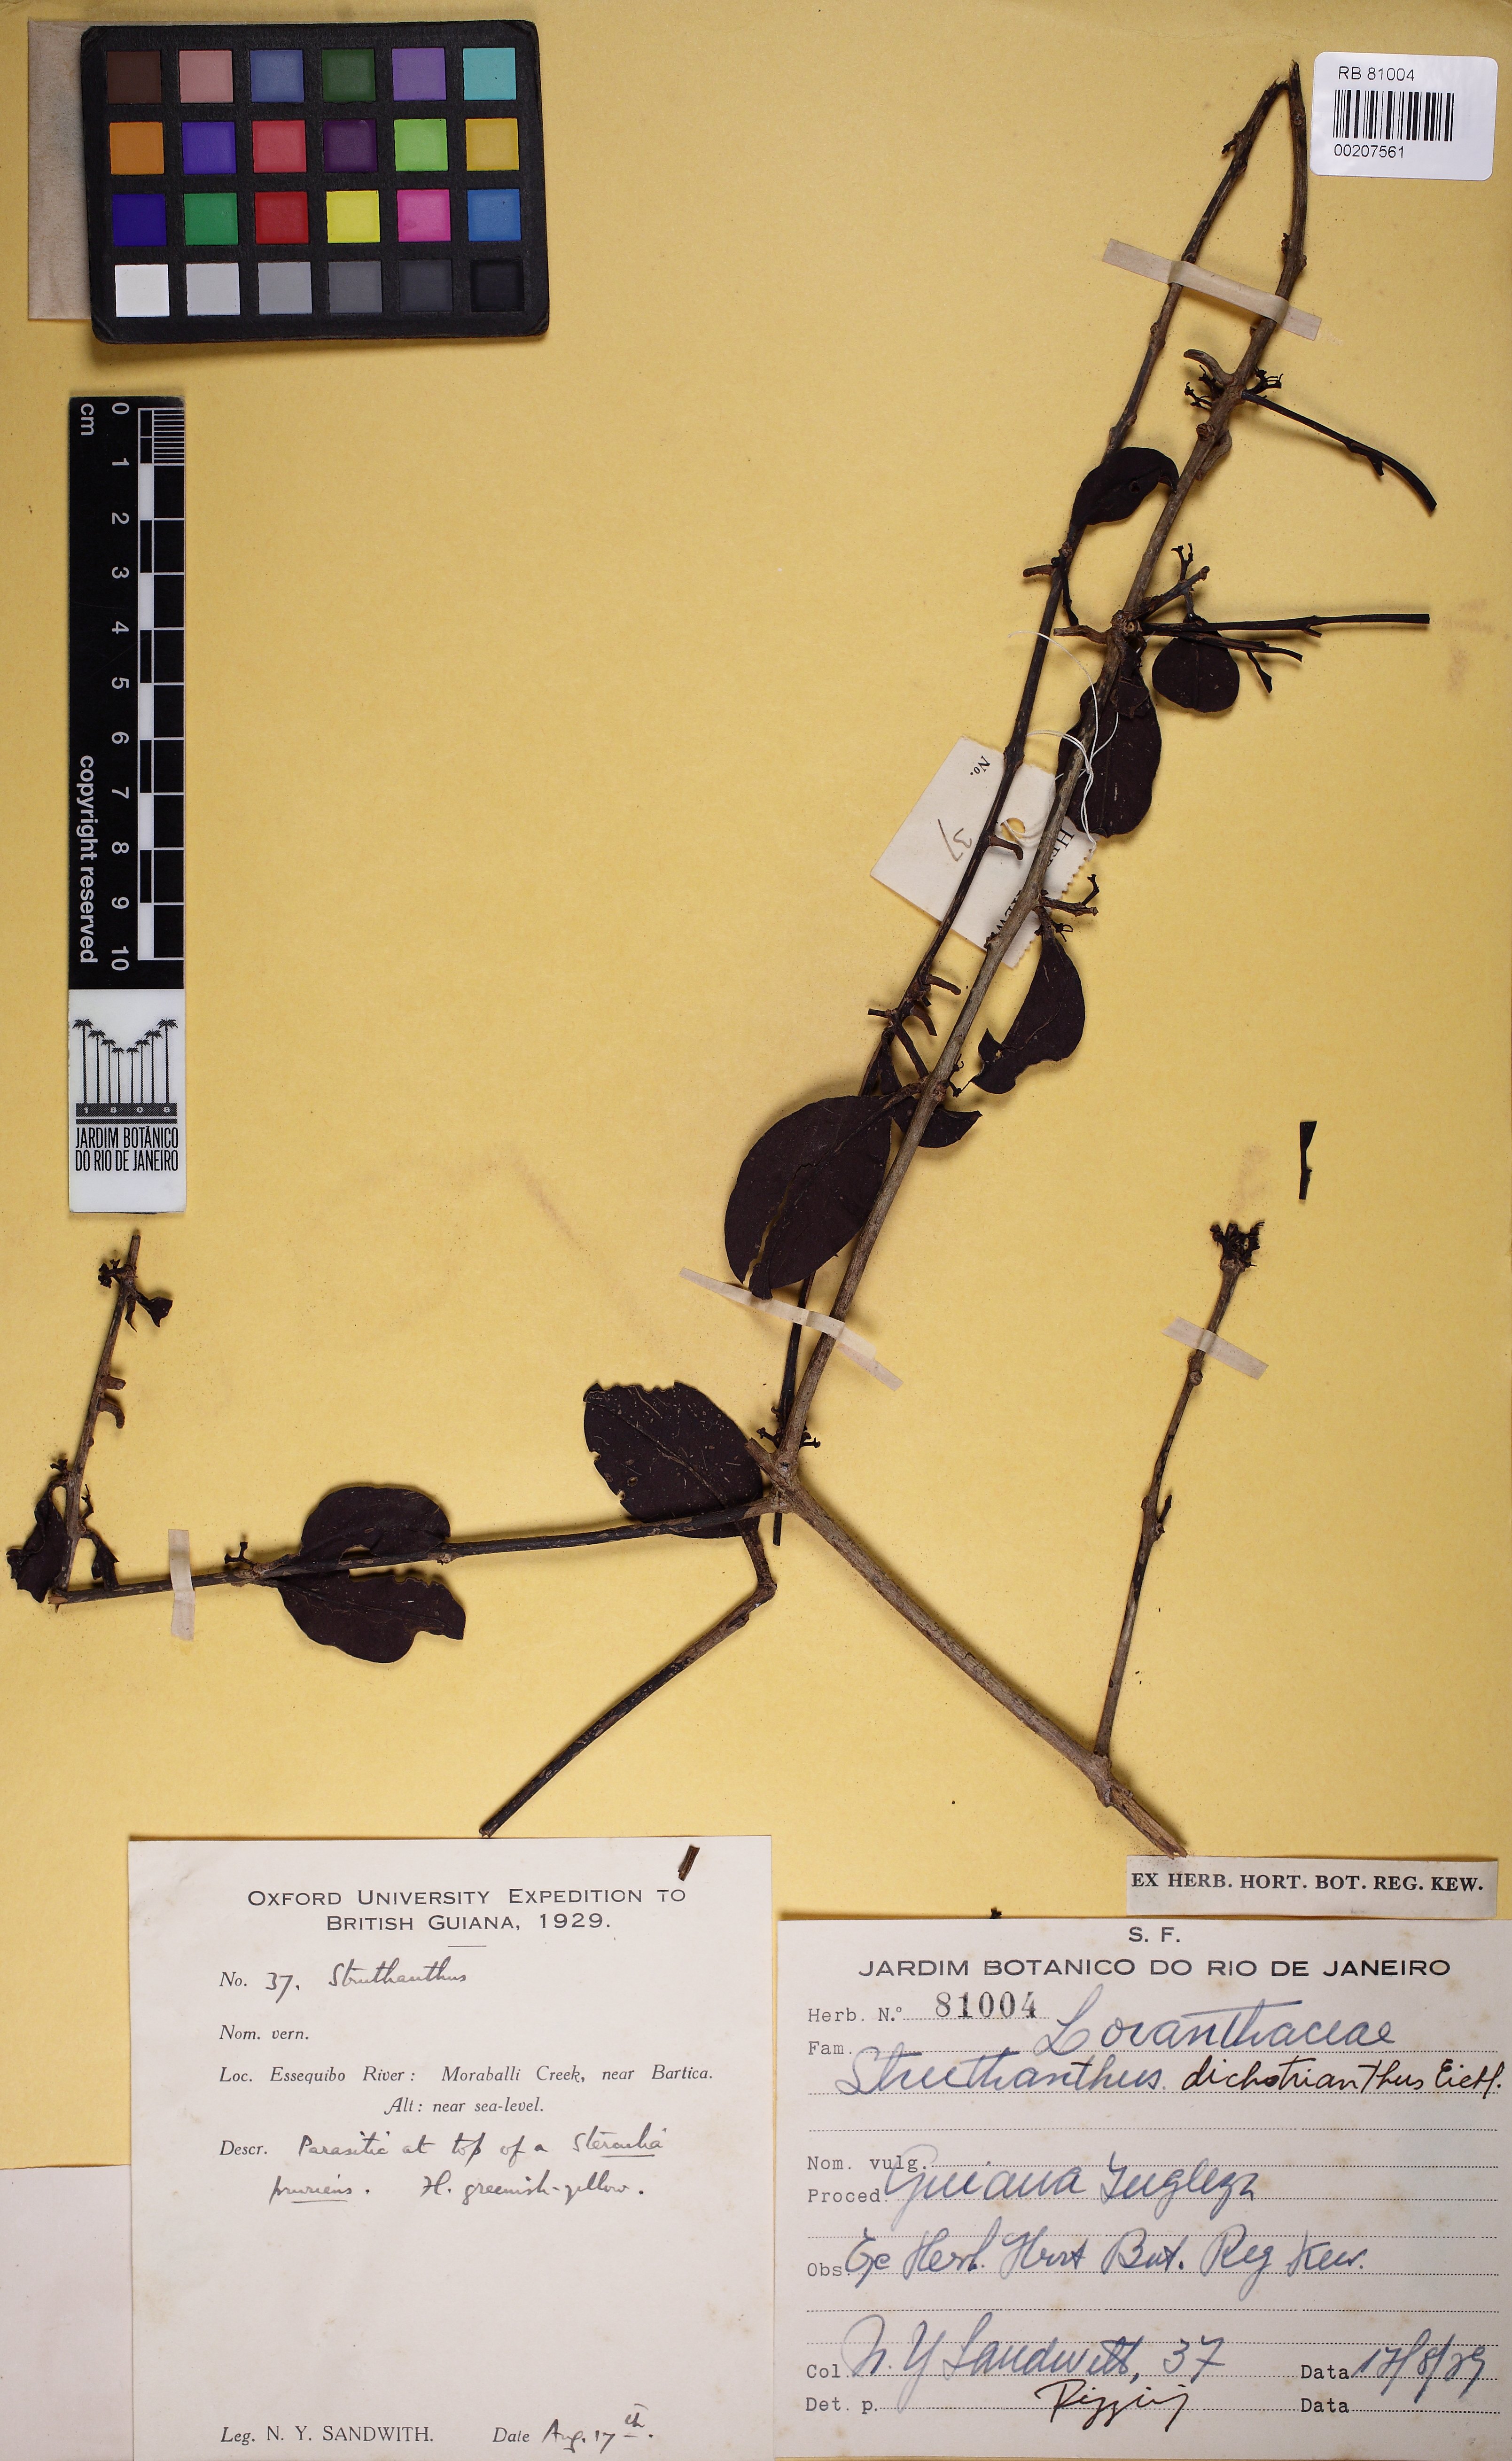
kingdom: Plantae
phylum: Tracheophyta
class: Magnoliopsida
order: Santalales
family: Loranthaceae
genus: Struthanthus
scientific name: Struthanthus phillyreoides
